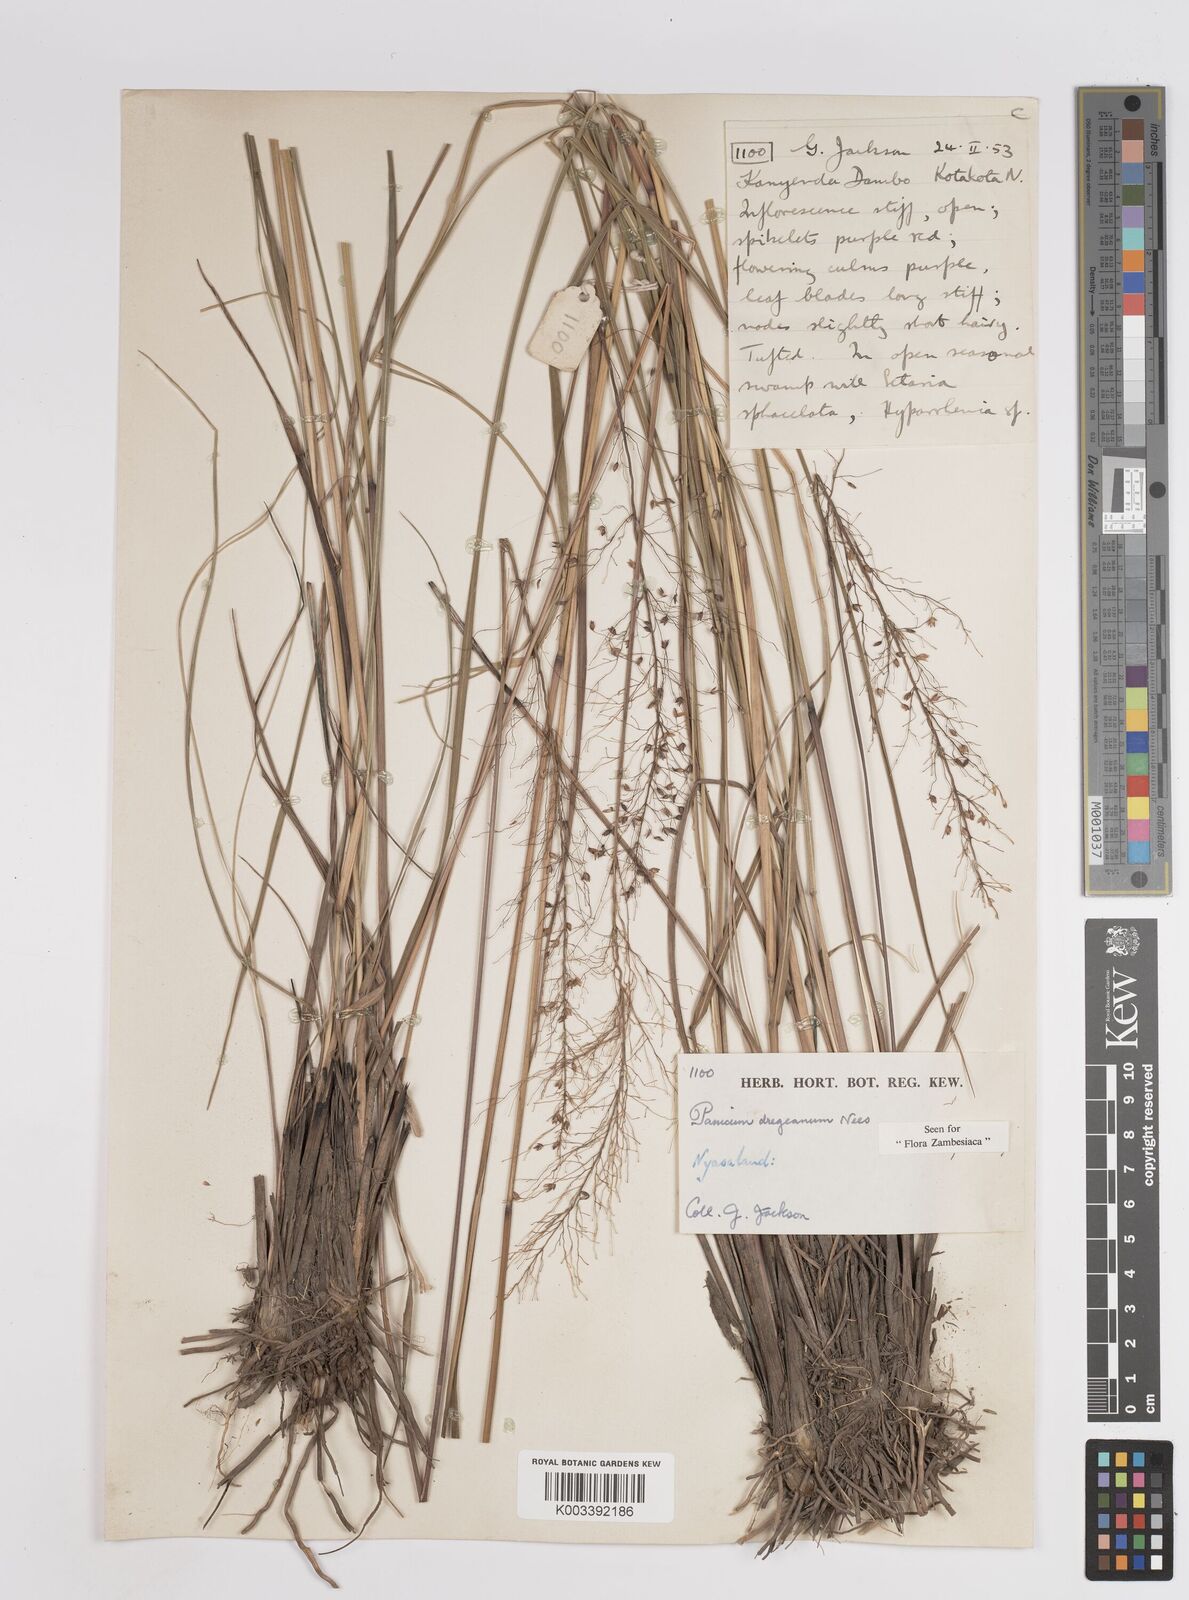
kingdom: Plantae
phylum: Tracheophyta
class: Liliopsida
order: Poales
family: Poaceae
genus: Panicum
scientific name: Panicum dregeanum
